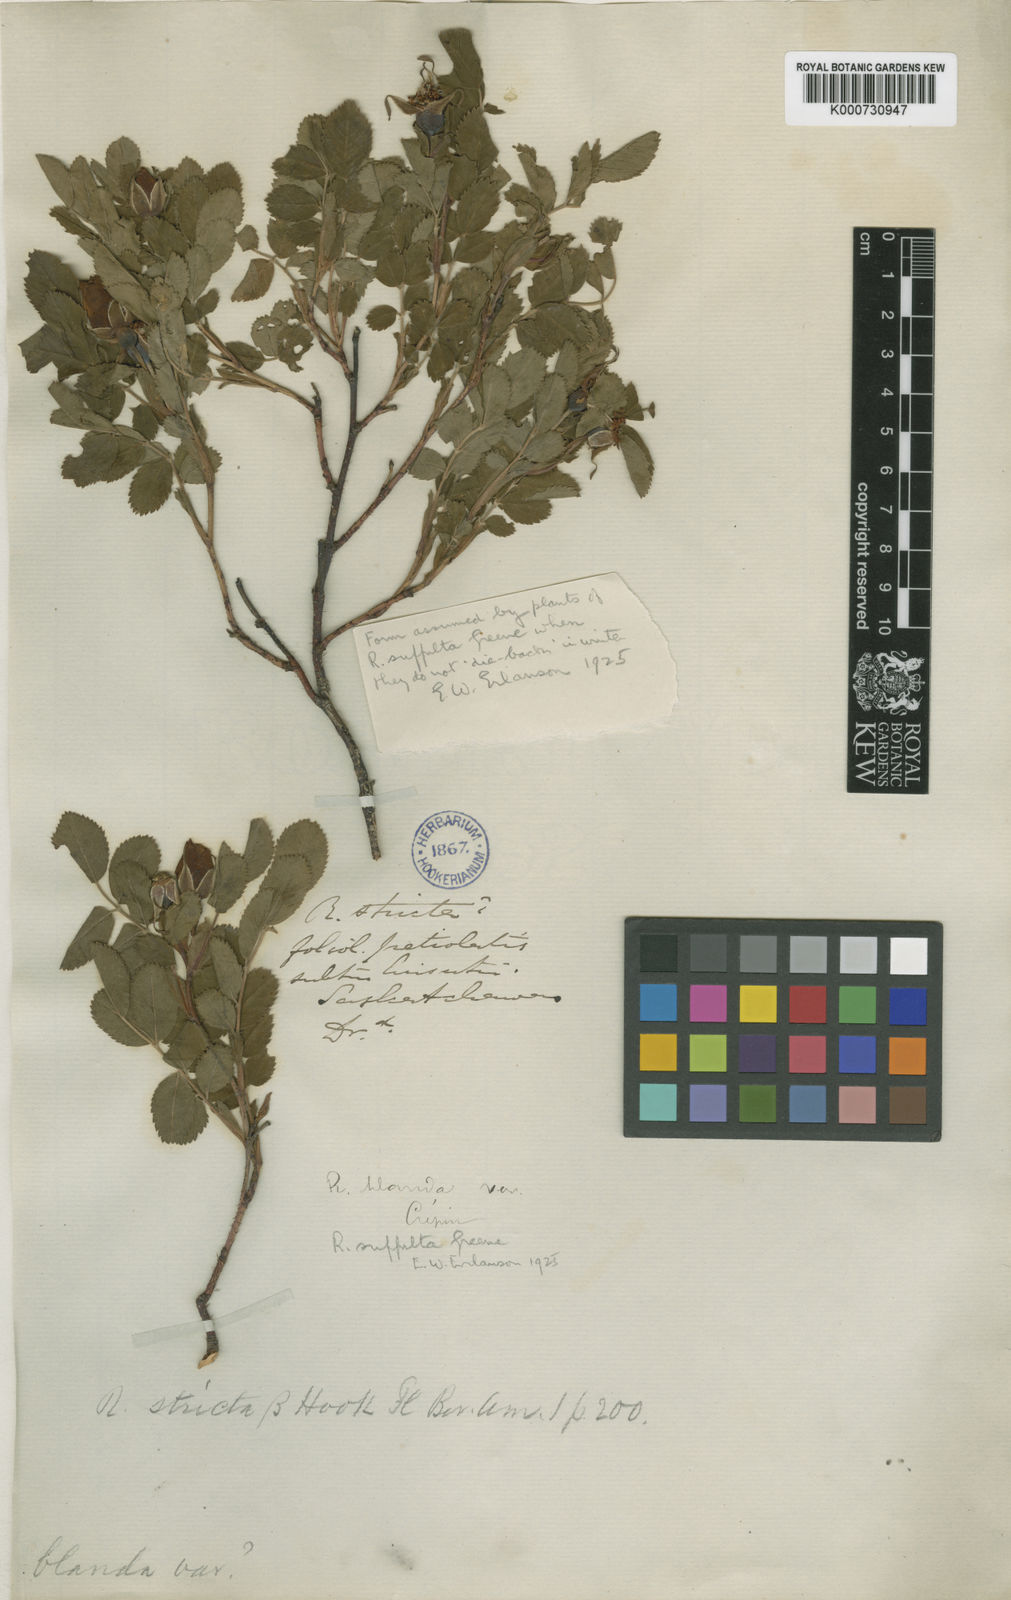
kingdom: Plantae
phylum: Tracheophyta
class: Magnoliopsida
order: Rosales
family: Rosaceae
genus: Rosa
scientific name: Rosa arkansana
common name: Prairie rose
